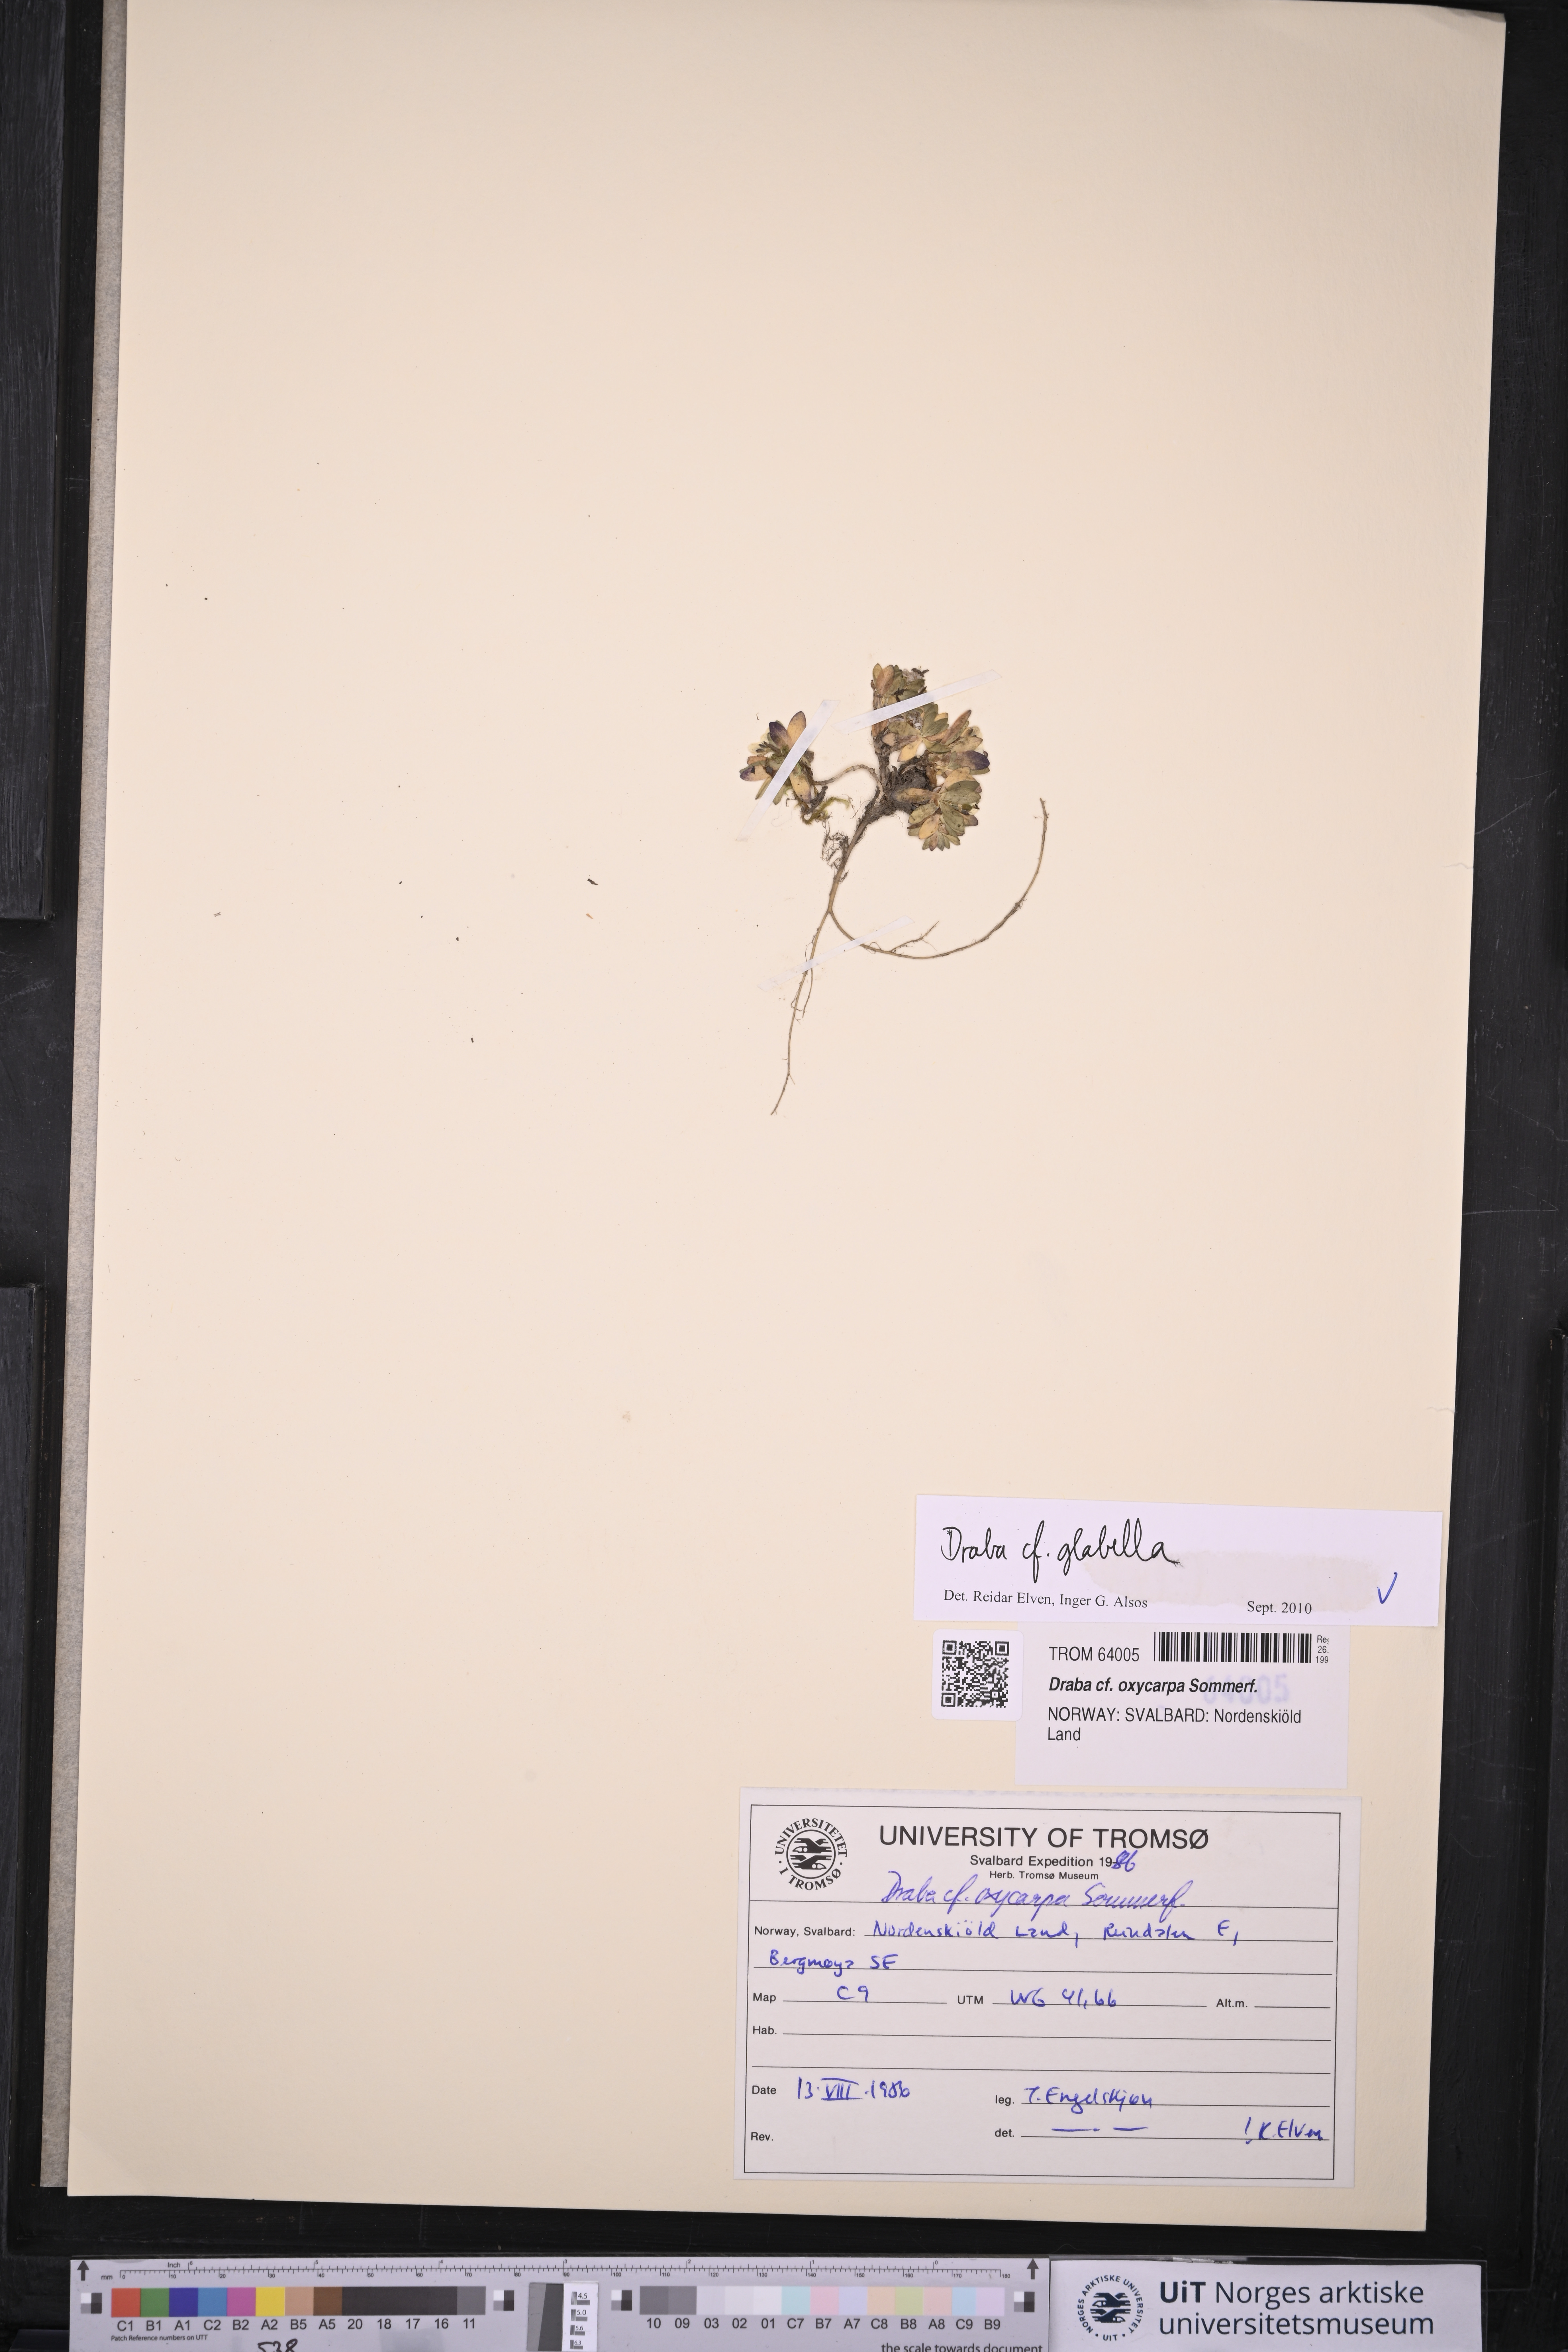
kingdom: Plantae
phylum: Tracheophyta
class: Magnoliopsida
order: Brassicales
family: Brassicaceae
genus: Draba
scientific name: Draba glabella
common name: Glaucous draba
